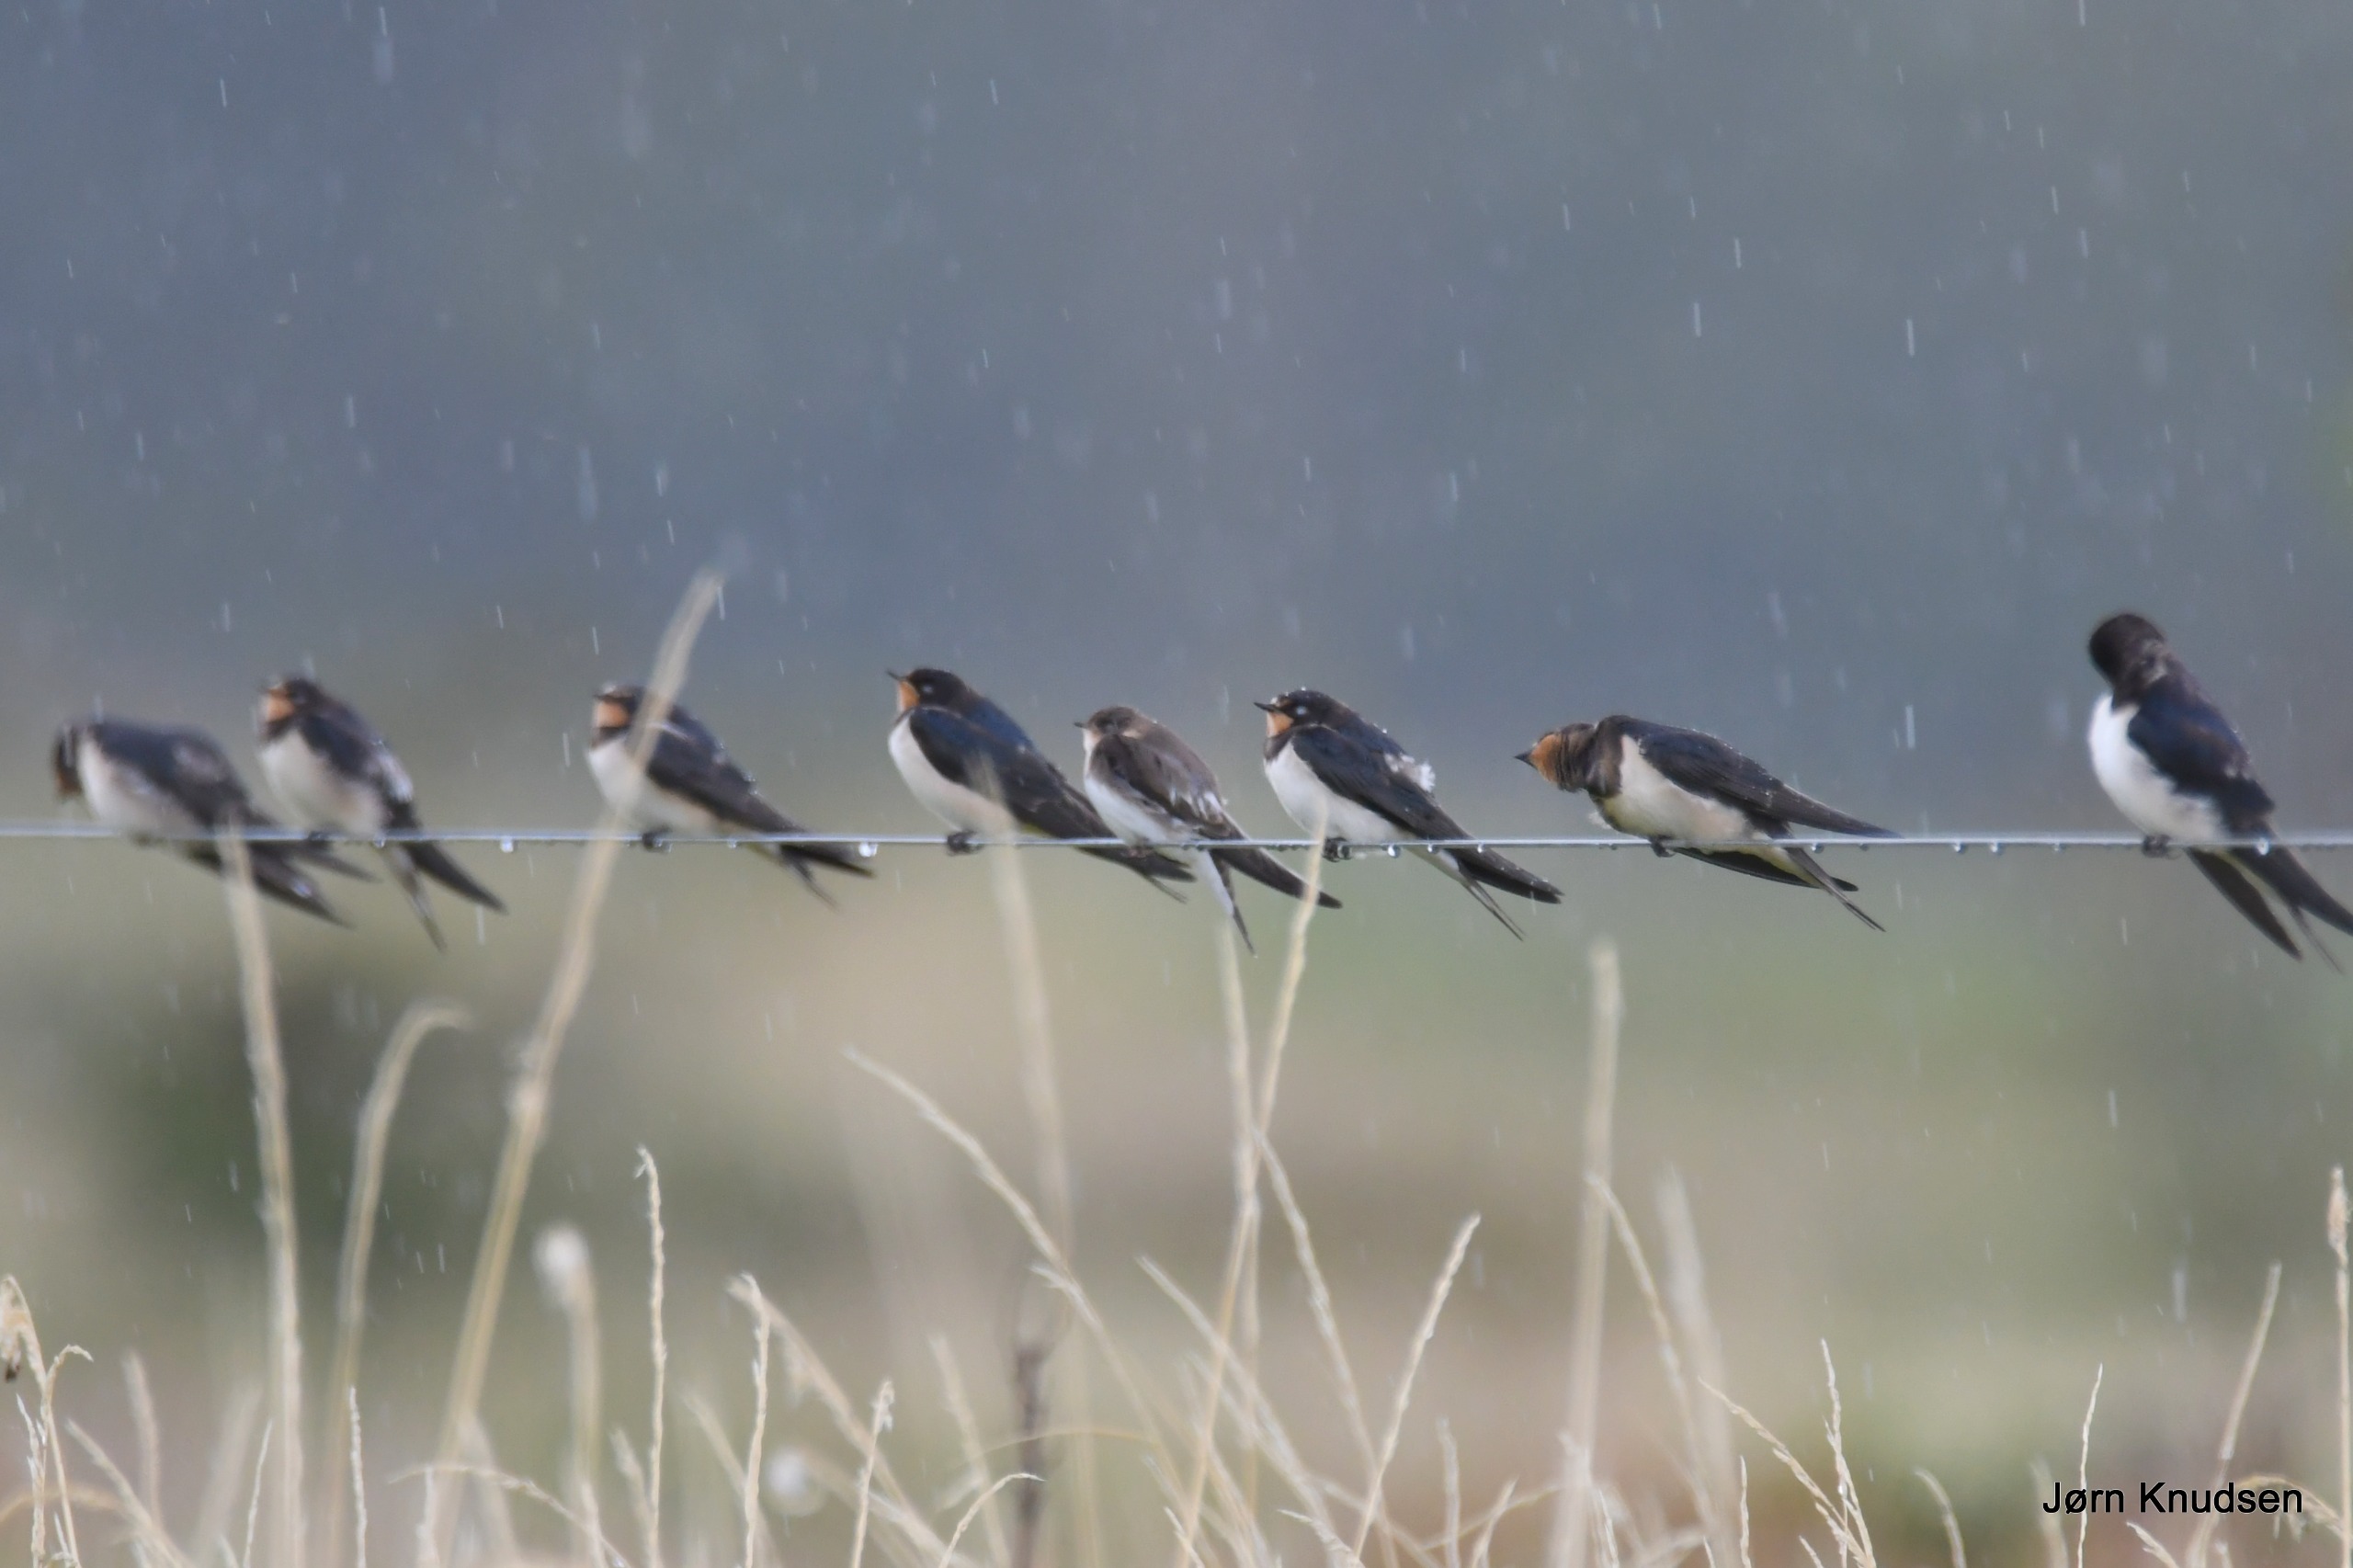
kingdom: Animalia
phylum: Chordata
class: Aves
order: Passeriformes
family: Hirundinidae
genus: Hirundo
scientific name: Hirundo rustica
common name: Landsvale
